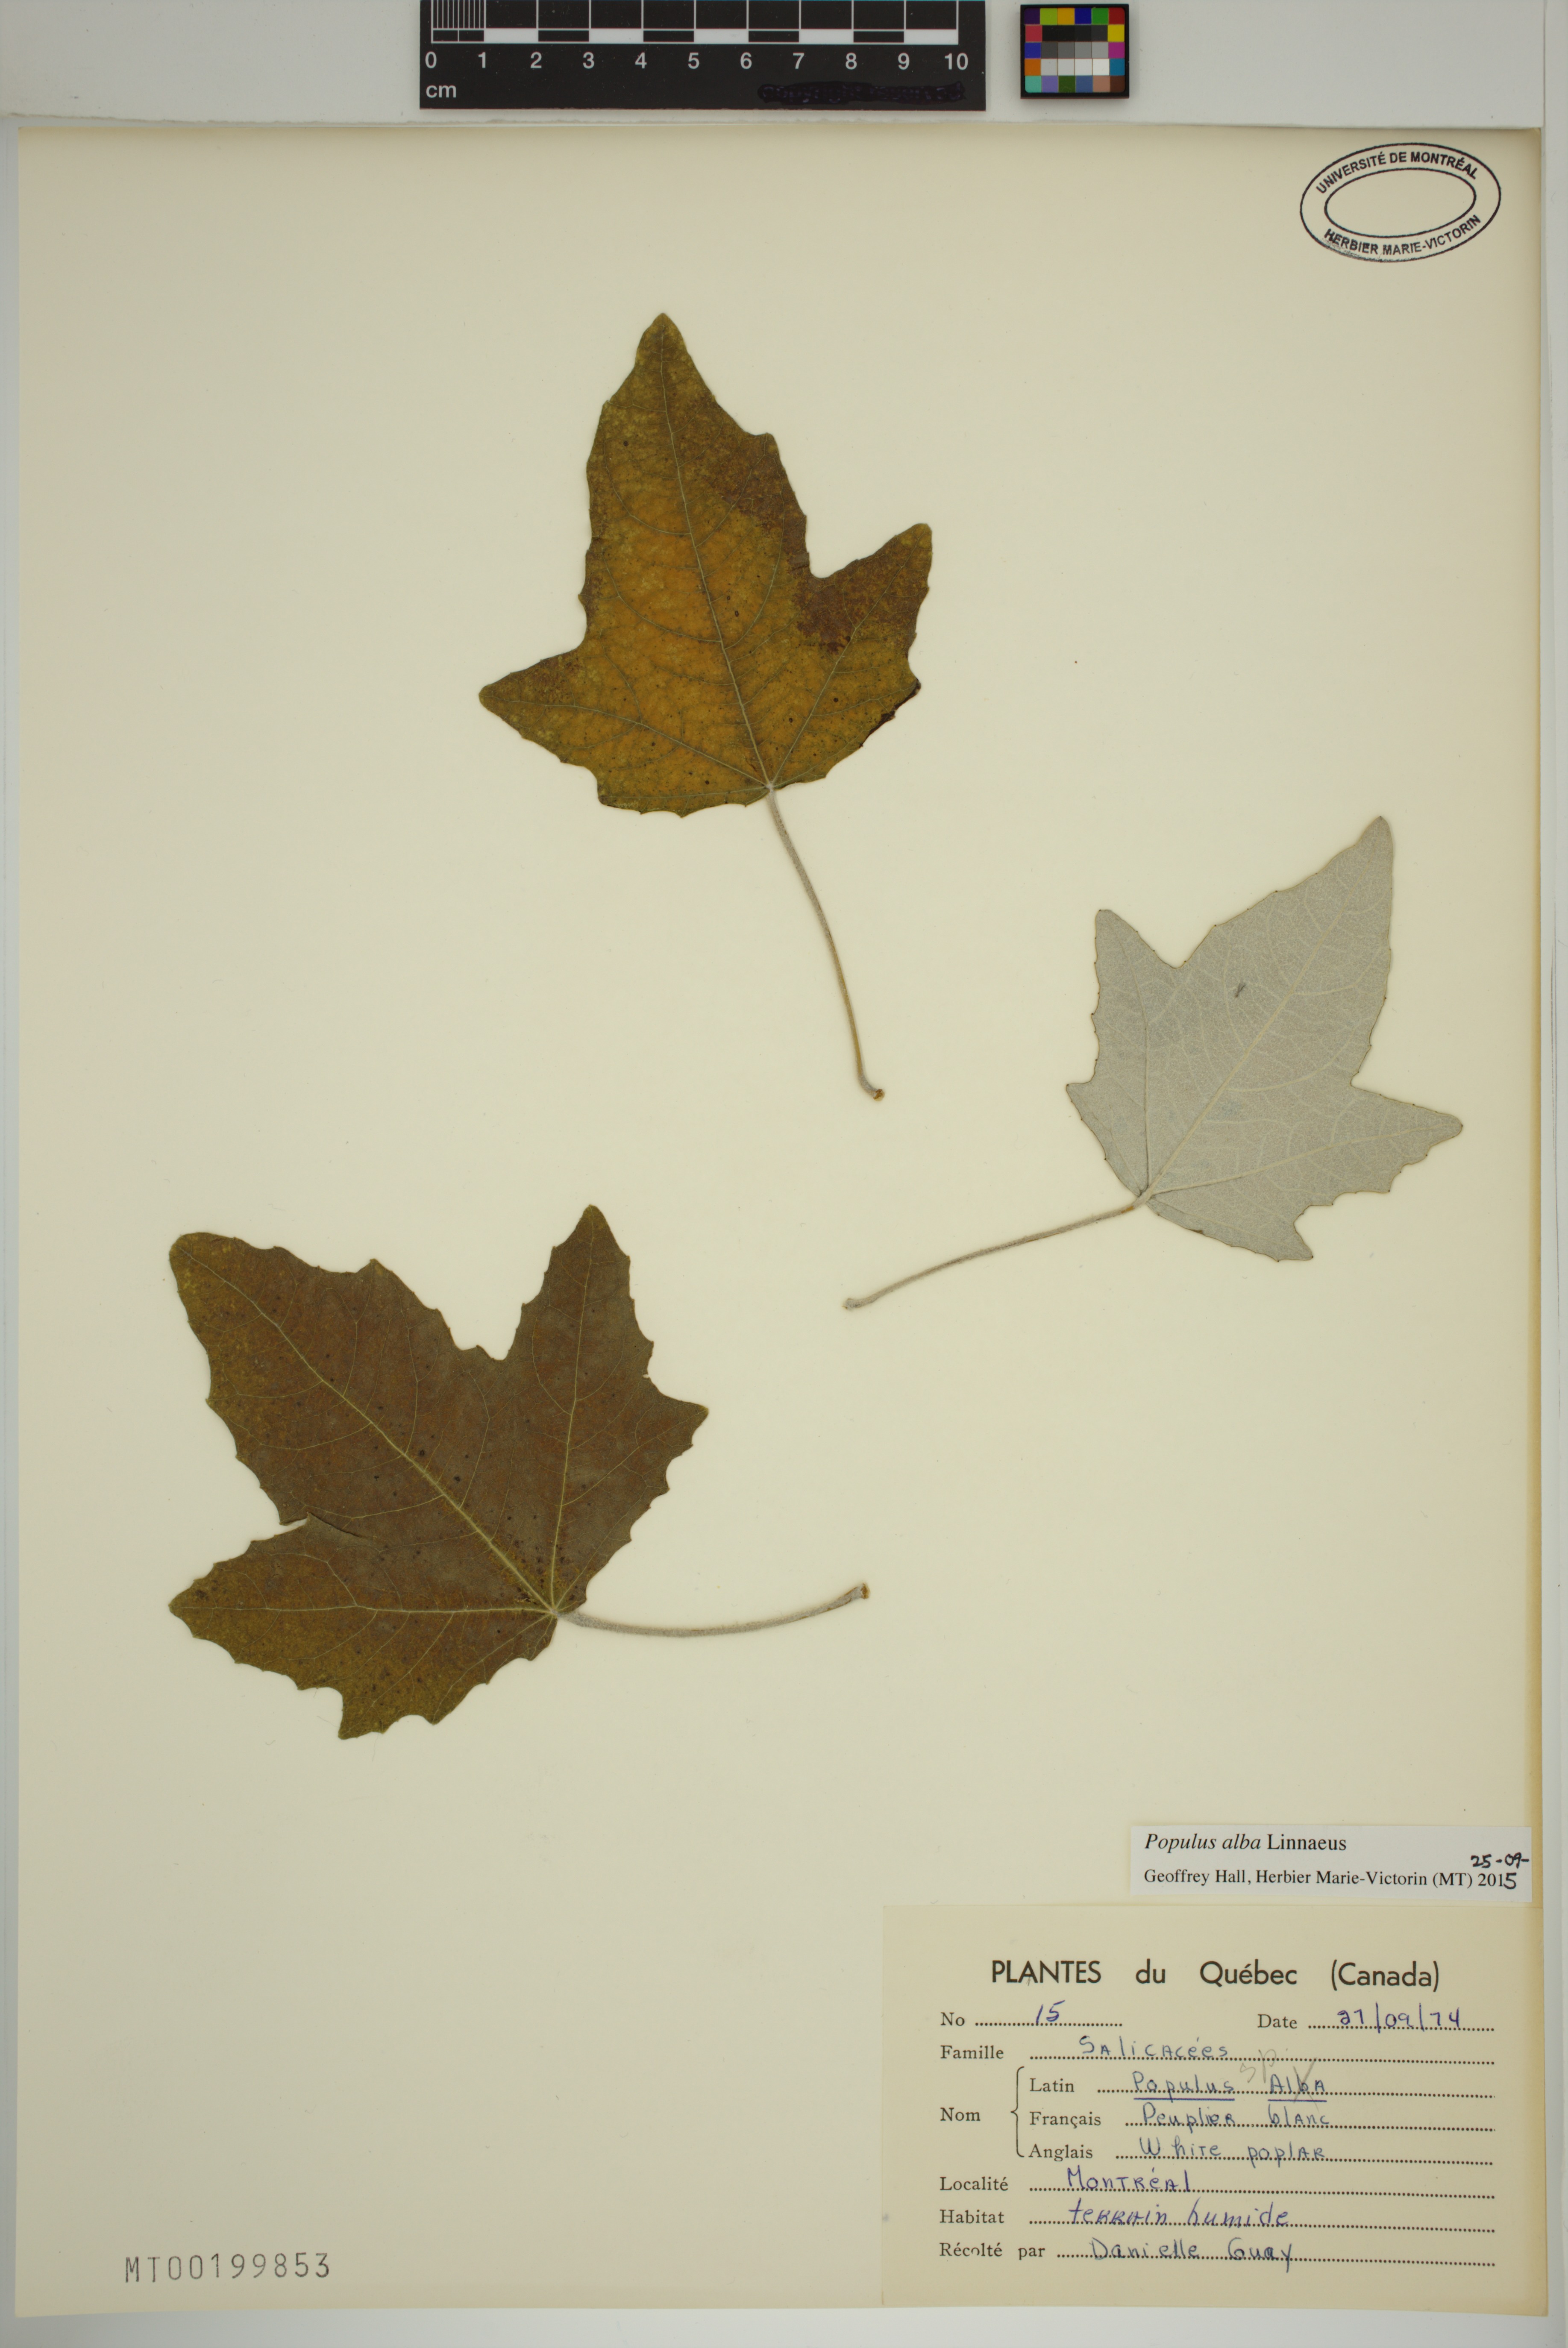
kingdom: Plantae
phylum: Tracheophyta
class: Magnoliopsida
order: Malpighiales
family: Salicaceae
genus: Populus
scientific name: Populus alba
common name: White poplar
